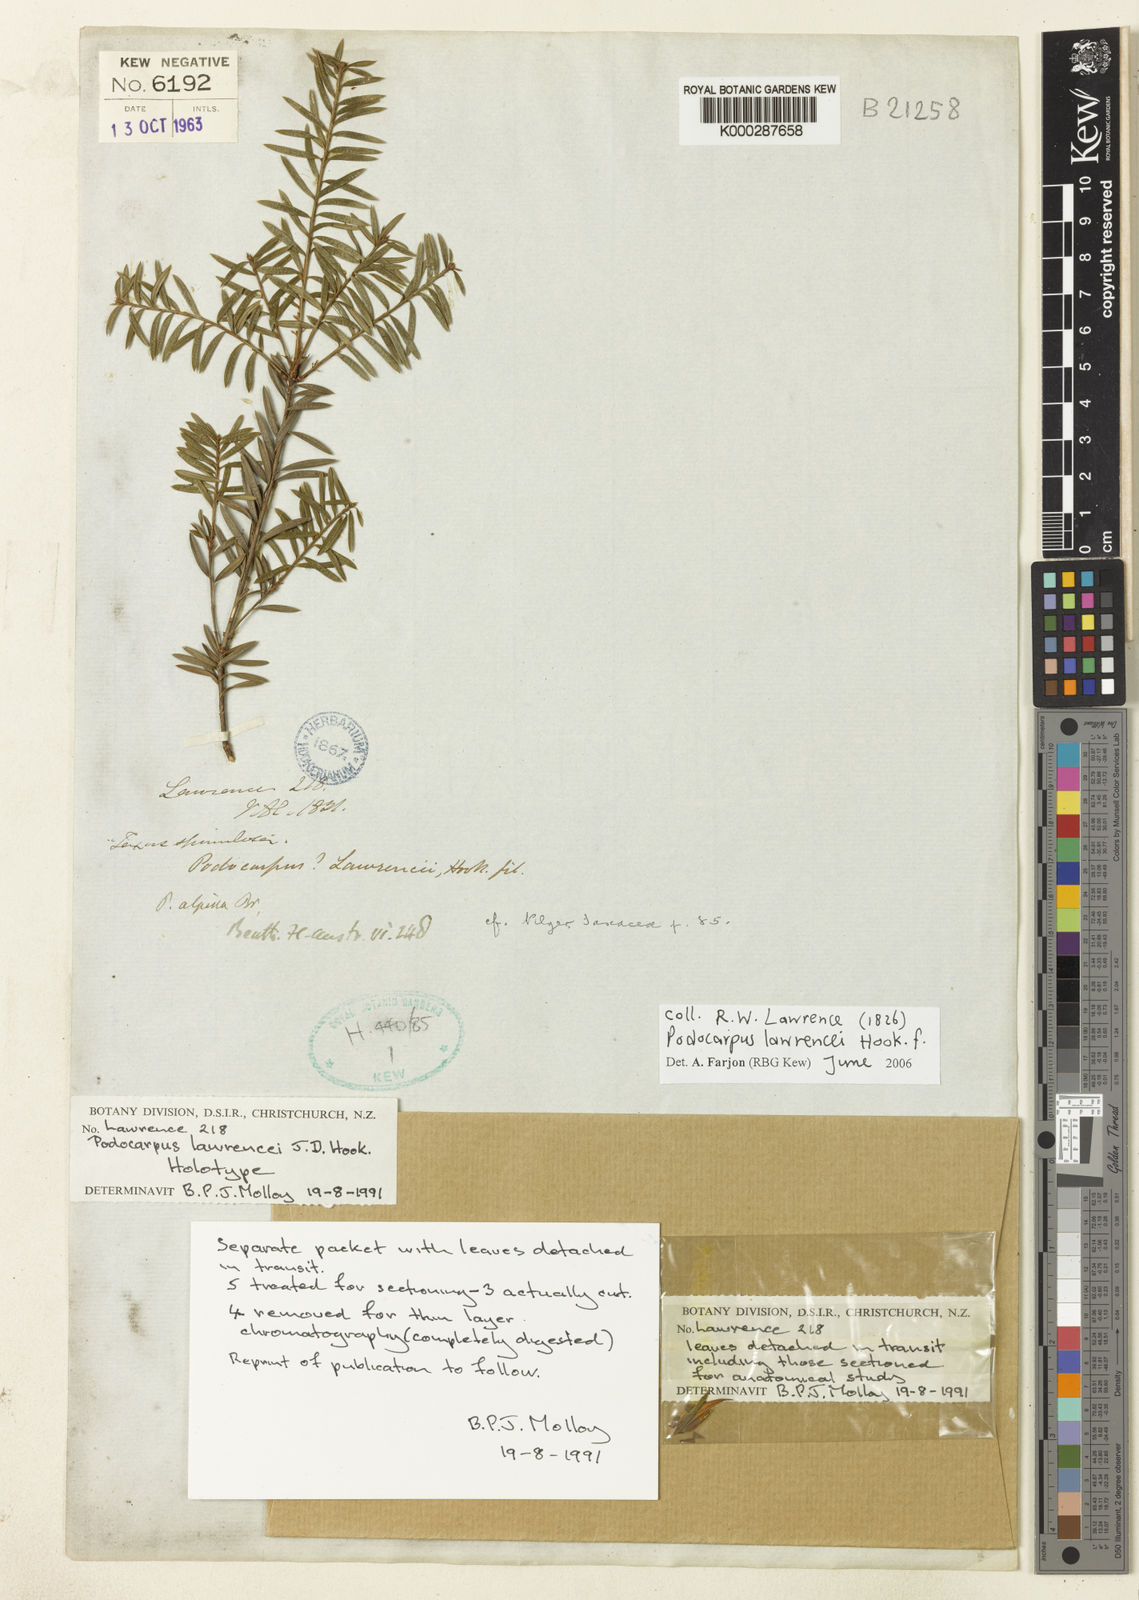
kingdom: Plantae
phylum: Tracheophyta
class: Pinopsida
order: Pinales
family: Podocarpaceae
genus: Podocarpus
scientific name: Podocarpus lawrencei
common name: Mountain plum pine
